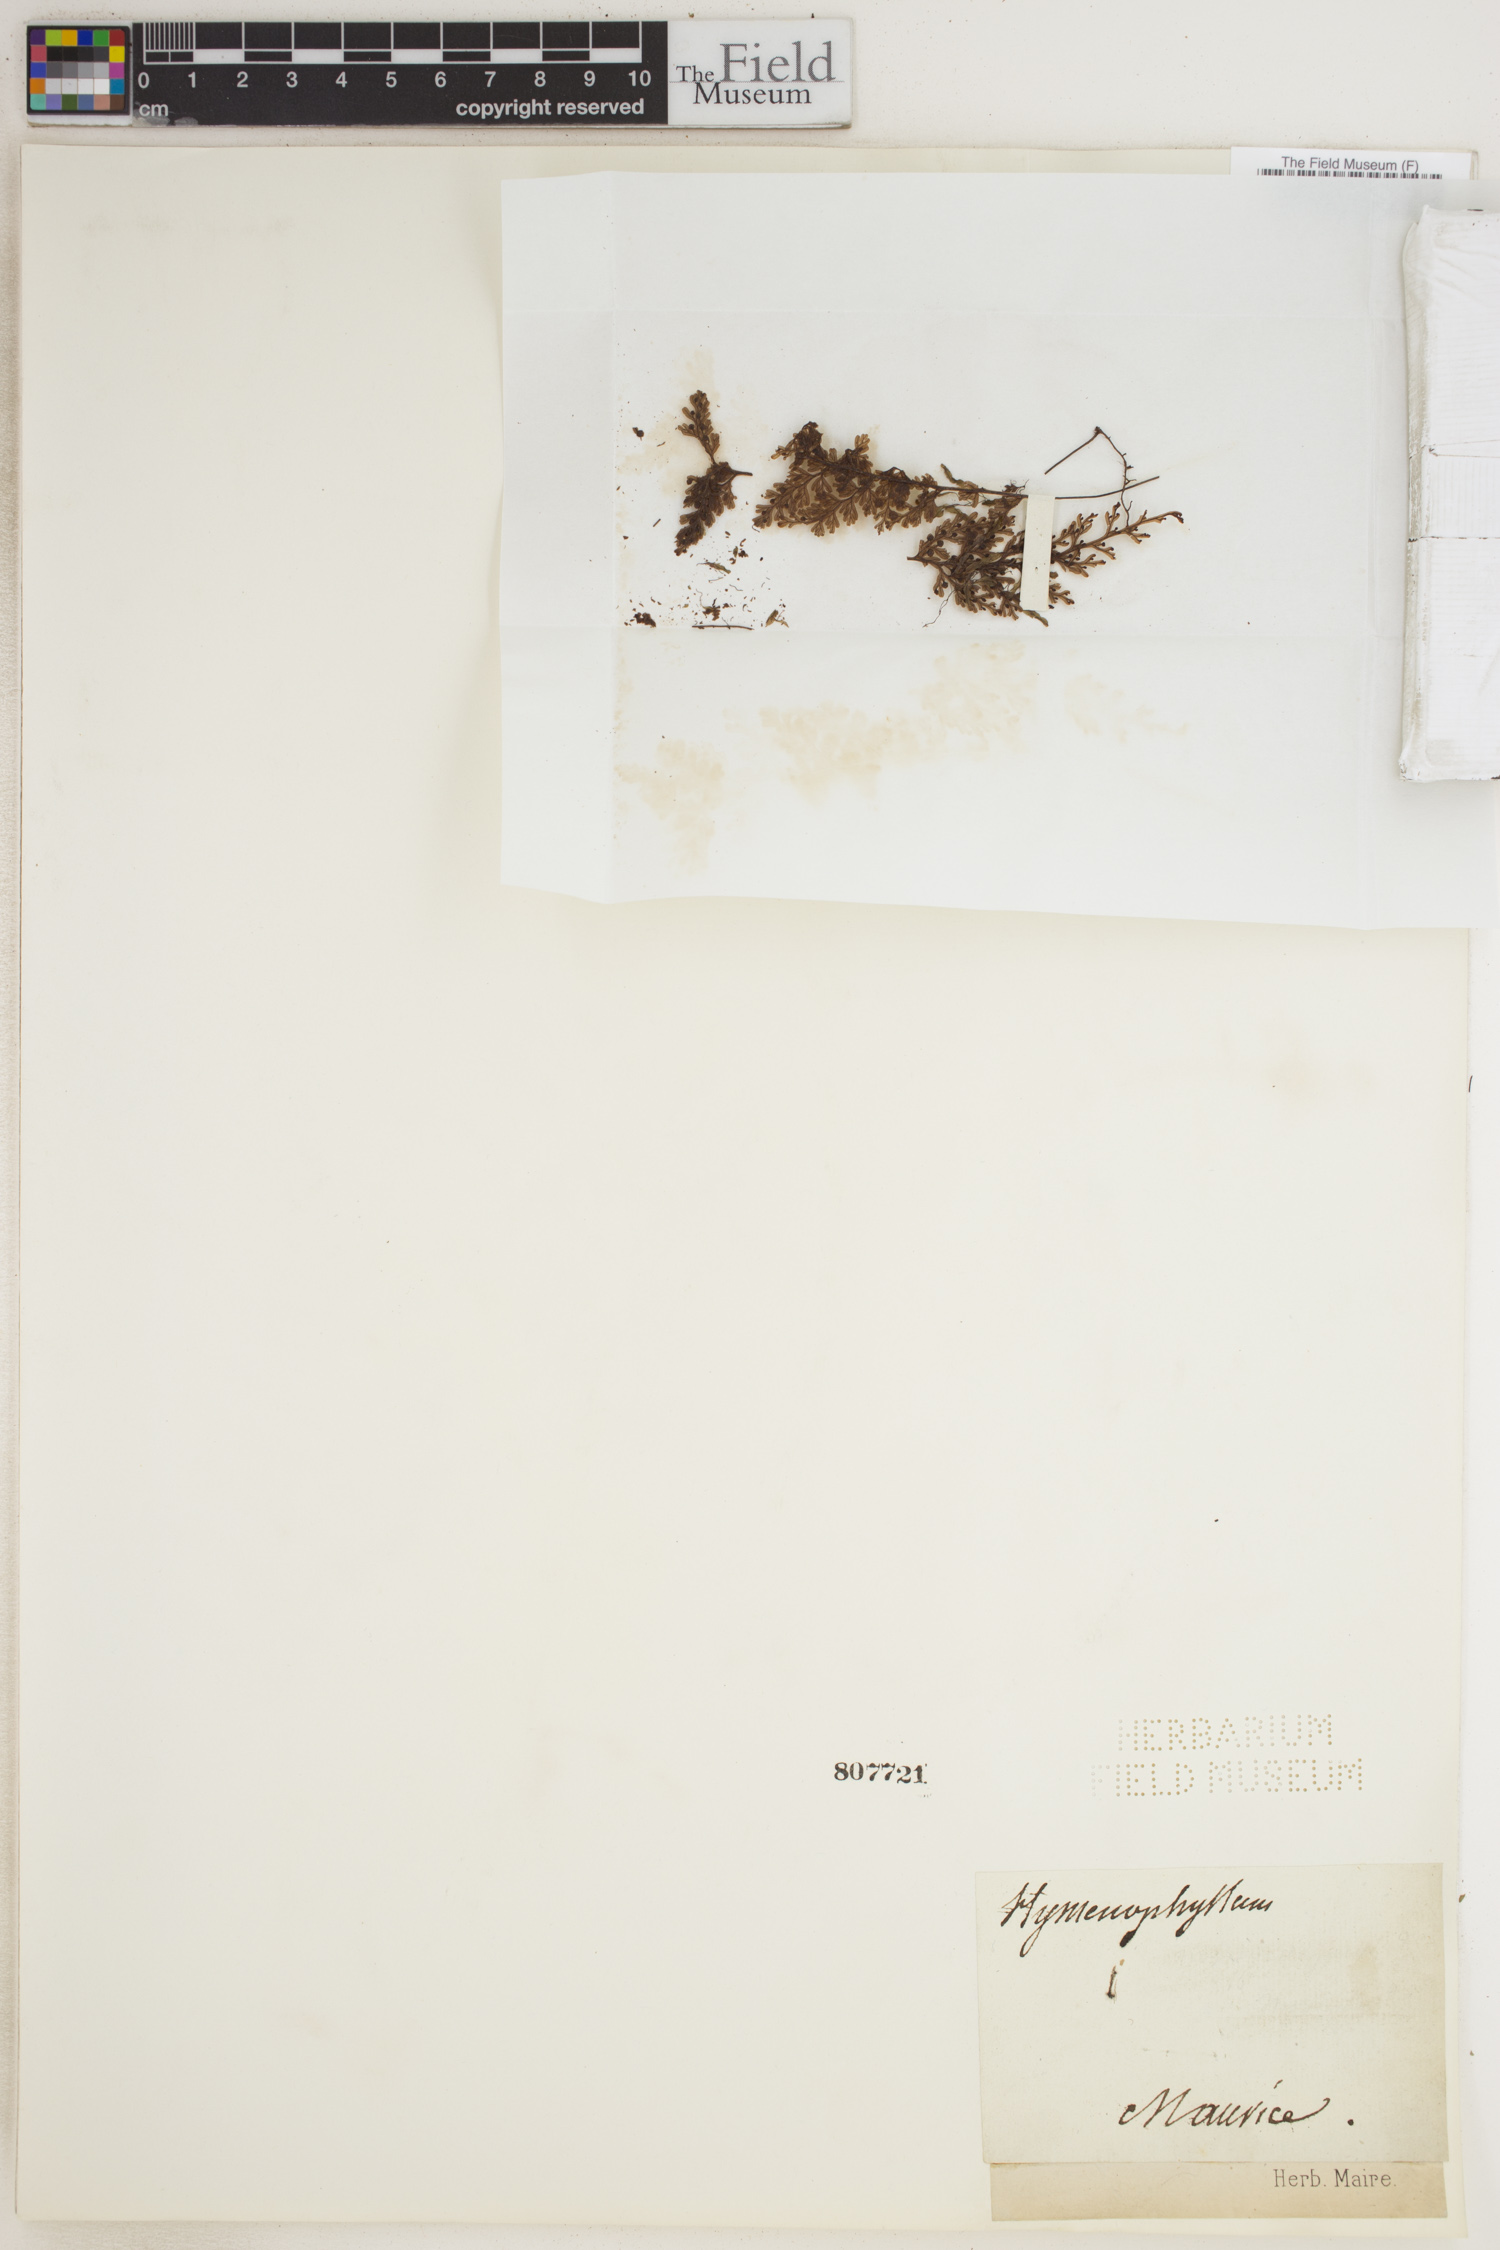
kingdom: Plantae
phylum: Tracheophyta
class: Polypodiopsida
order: Hymenophyllales
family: Hymenophyllaceae
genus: Hymenophyllum
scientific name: Hymenophyllum
